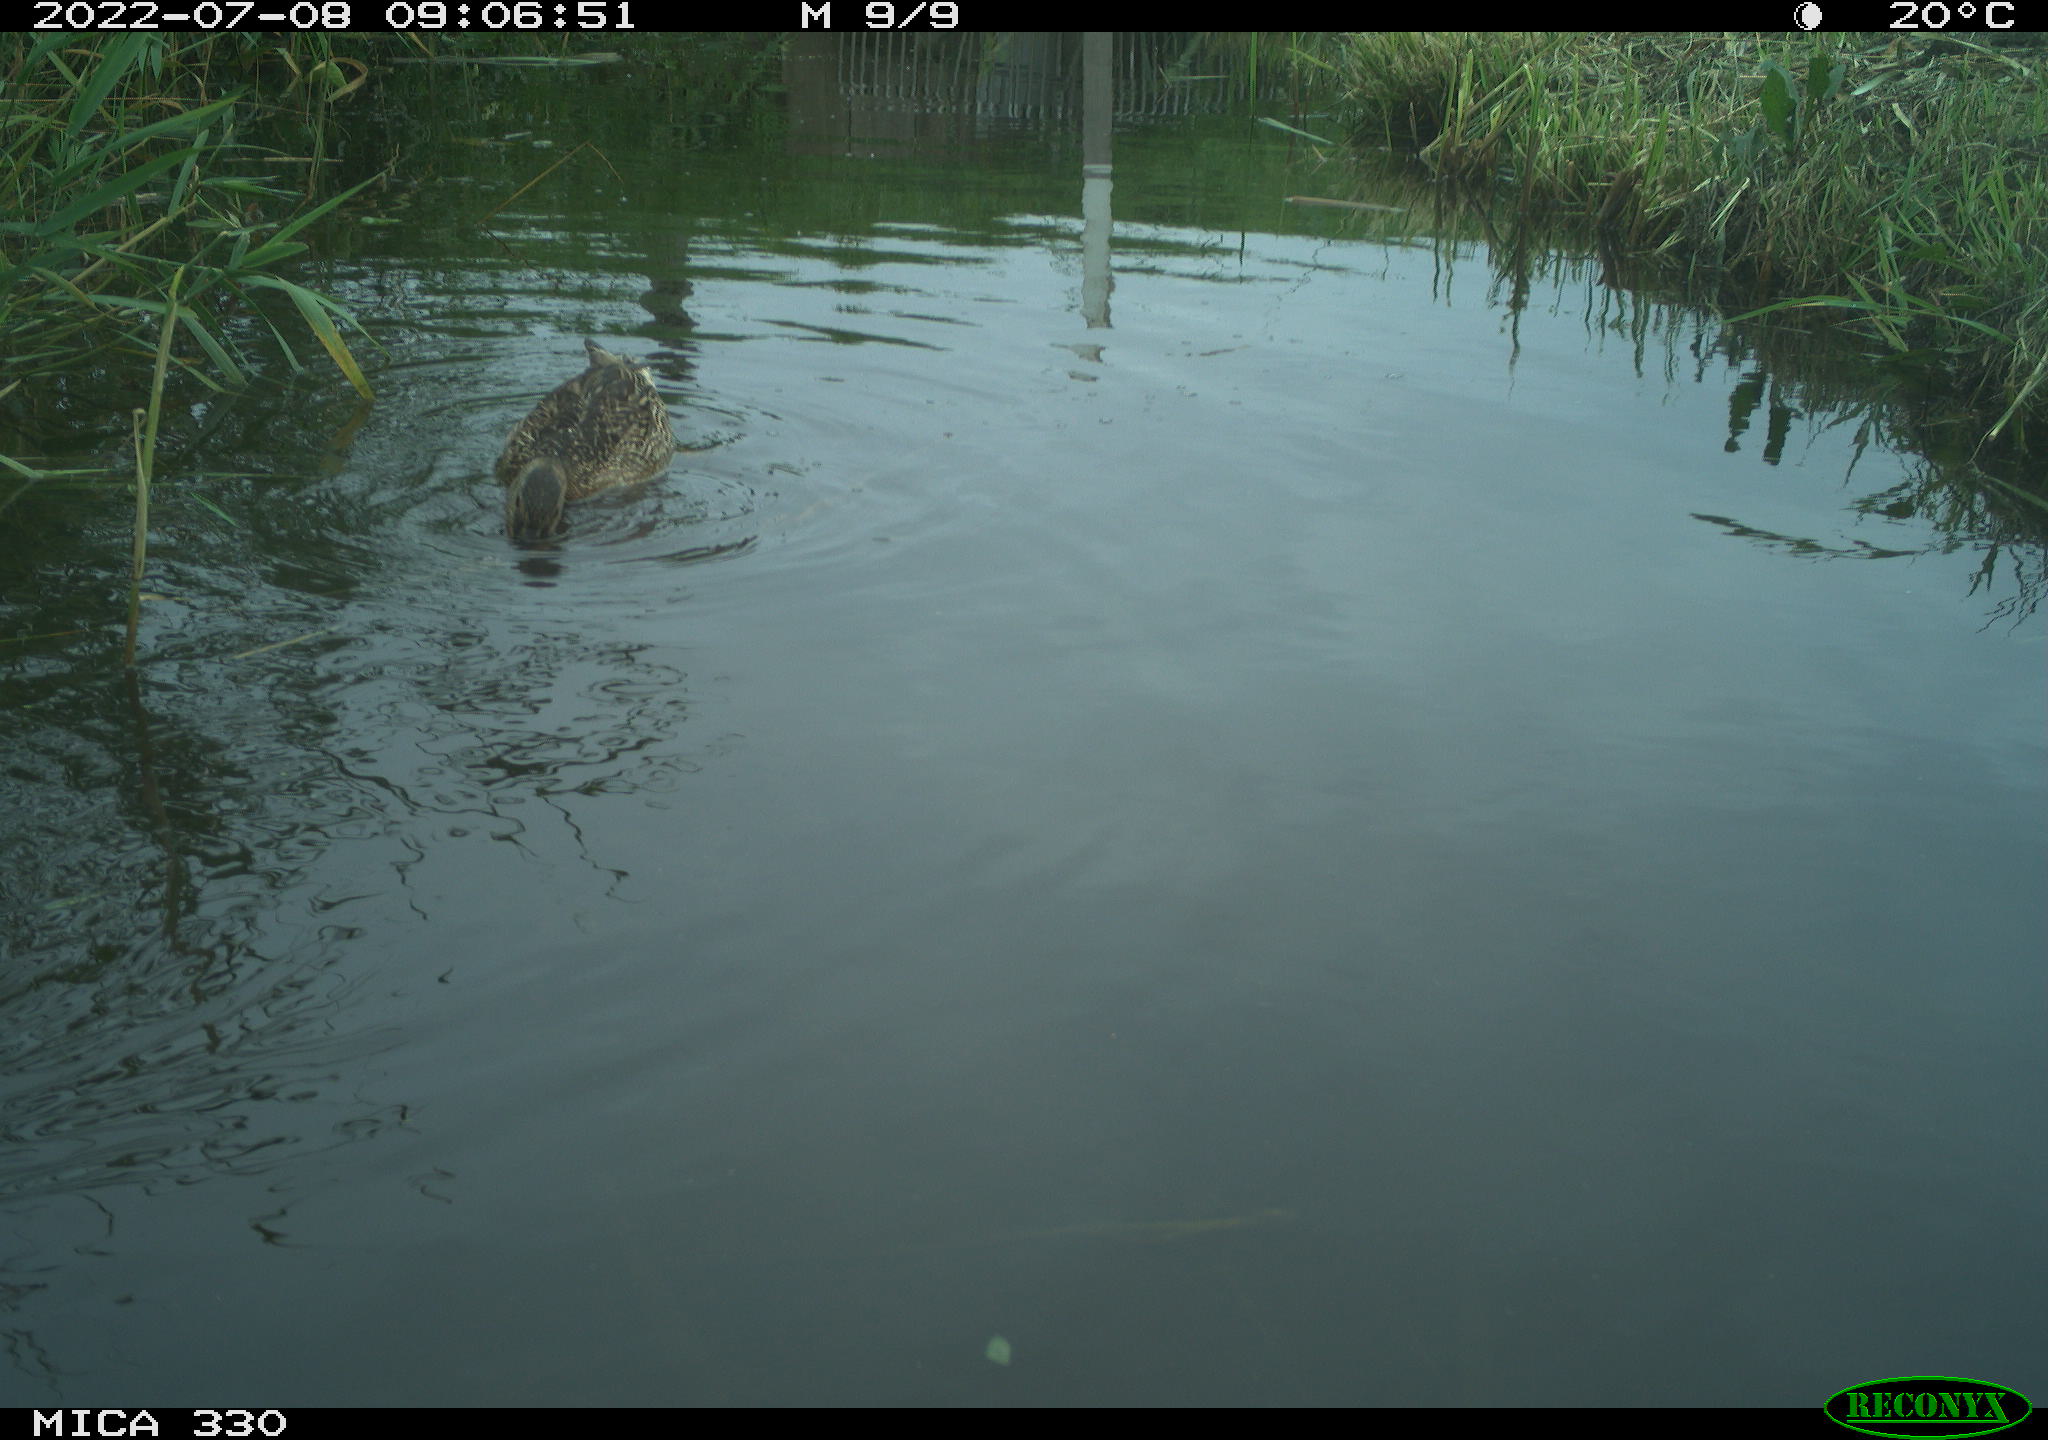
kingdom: Animalia
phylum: Chordata
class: Aves
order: Gruiformes
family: Rallidae
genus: Gallinula
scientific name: Gallinula chloropus
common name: Common moorhen
